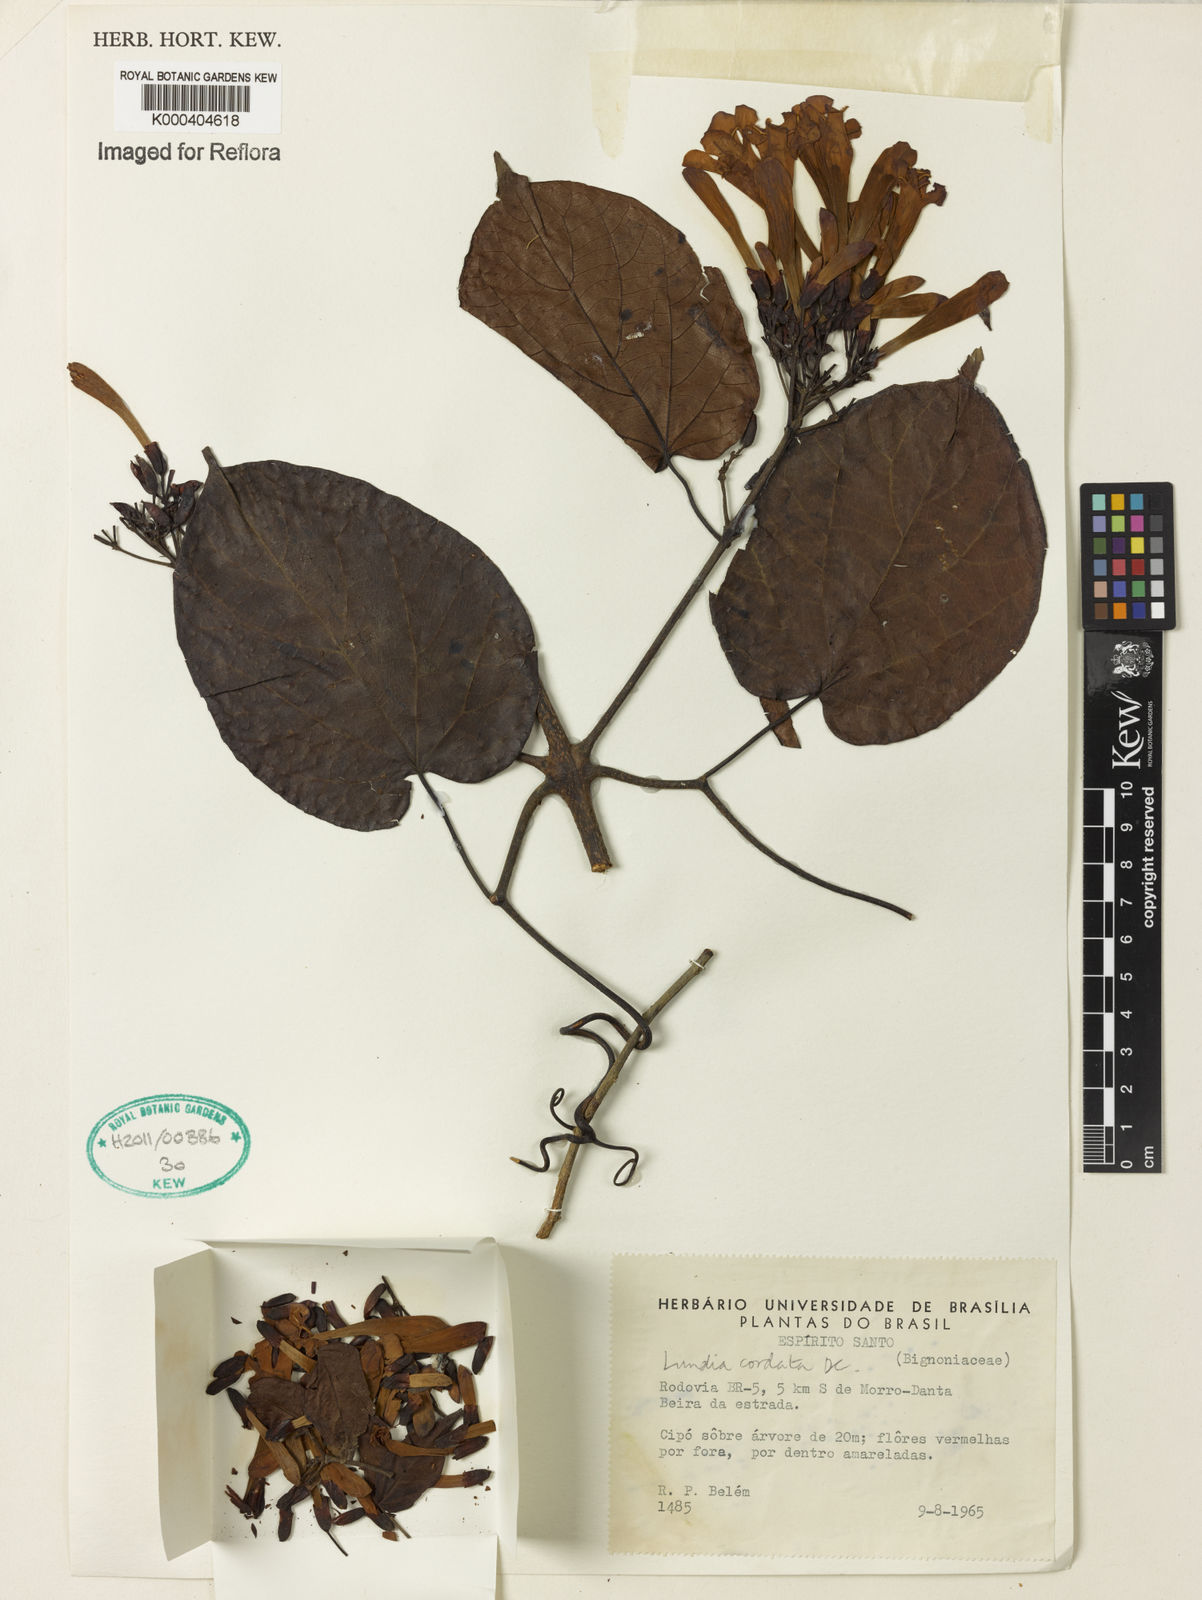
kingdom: Plantae
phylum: Tracheophyta
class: Magnoliopsida
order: Lamiales
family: Bignoniaceae
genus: Lundia
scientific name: Lundia corymbifera
